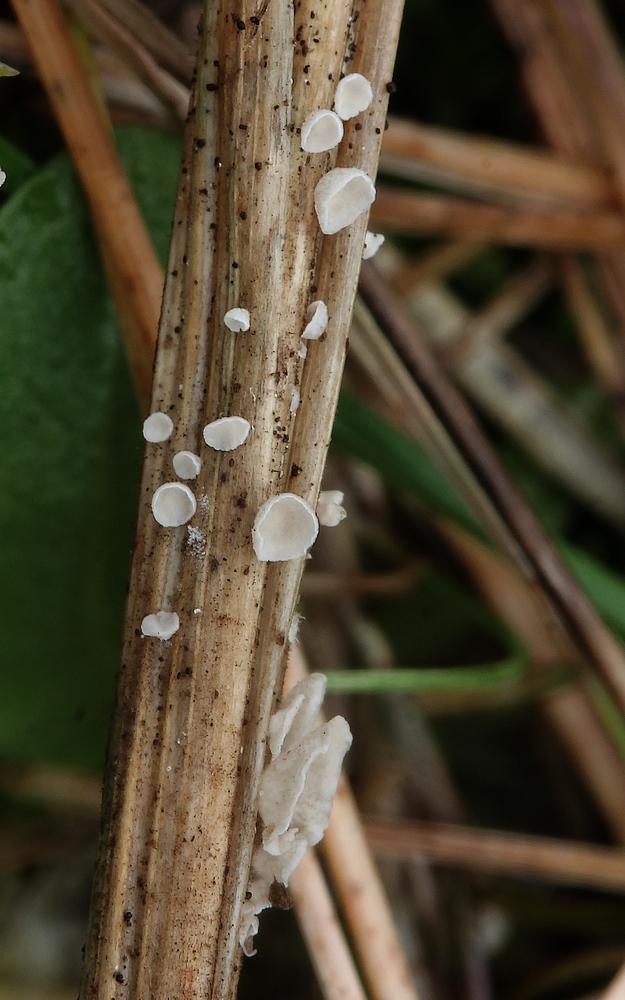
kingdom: Fungi
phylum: Basidiomycota
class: Agaricomycetes
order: Agaricales
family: Hygrophoraceae
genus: Arrhenia
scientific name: Arrhenia retiruga
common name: lille fontænehat
